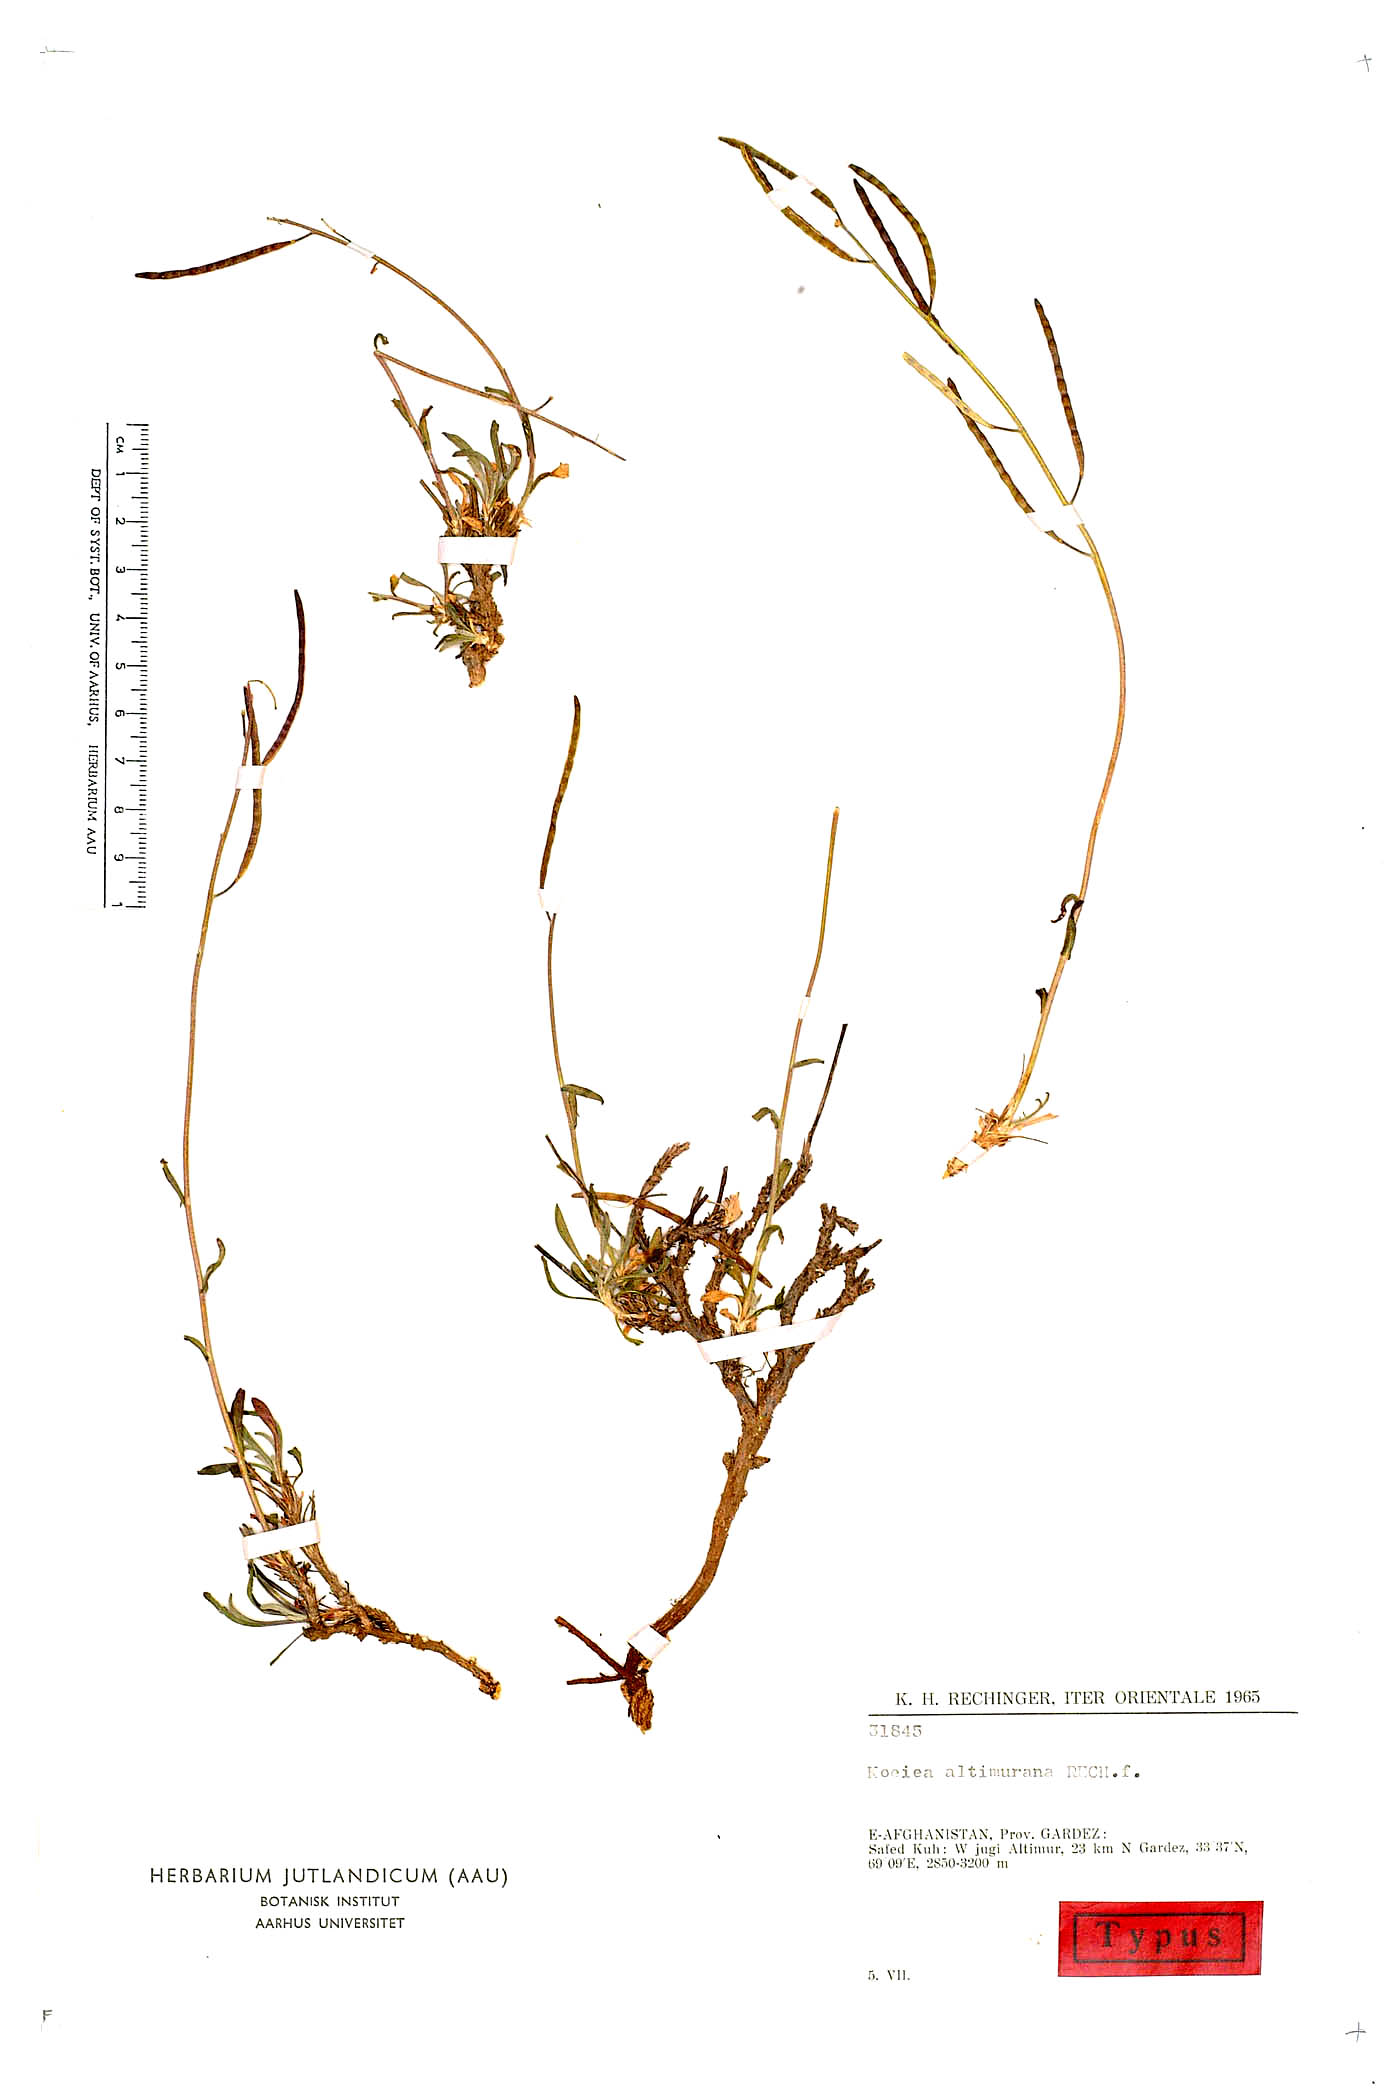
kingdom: Plantae
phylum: Tracheophyta
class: Magnoliopsida
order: Brassicales
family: Brassicaceae
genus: Dendroarabis
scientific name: Dendroarabis fruticulosa
